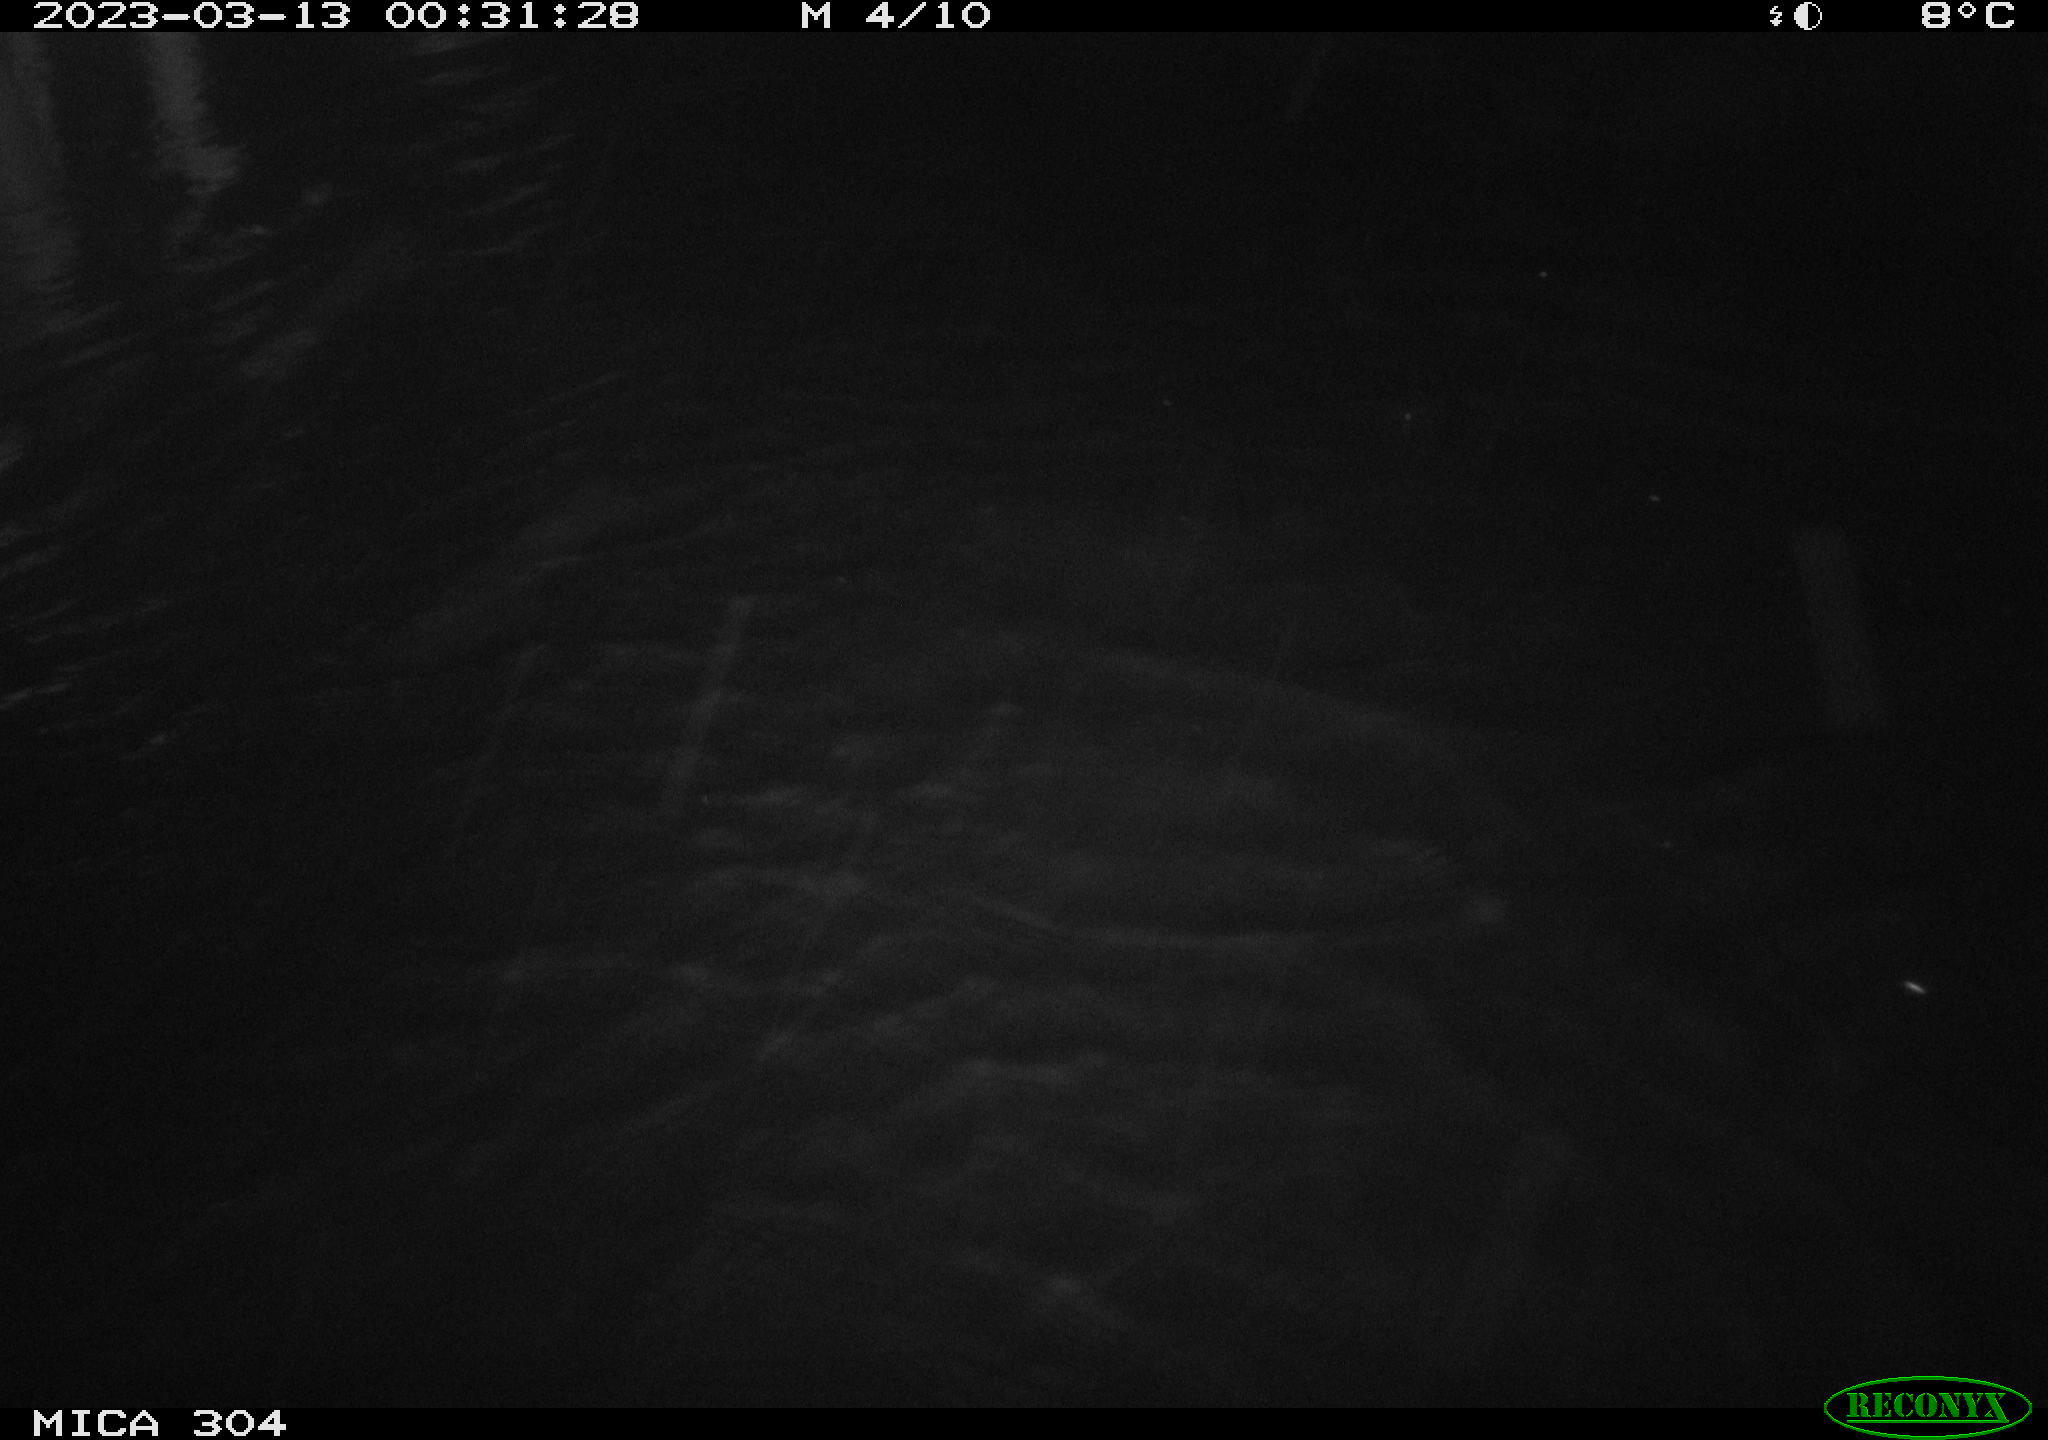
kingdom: Animalia
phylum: Chordata
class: Mammalia
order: Rodentia
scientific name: Rodentia
